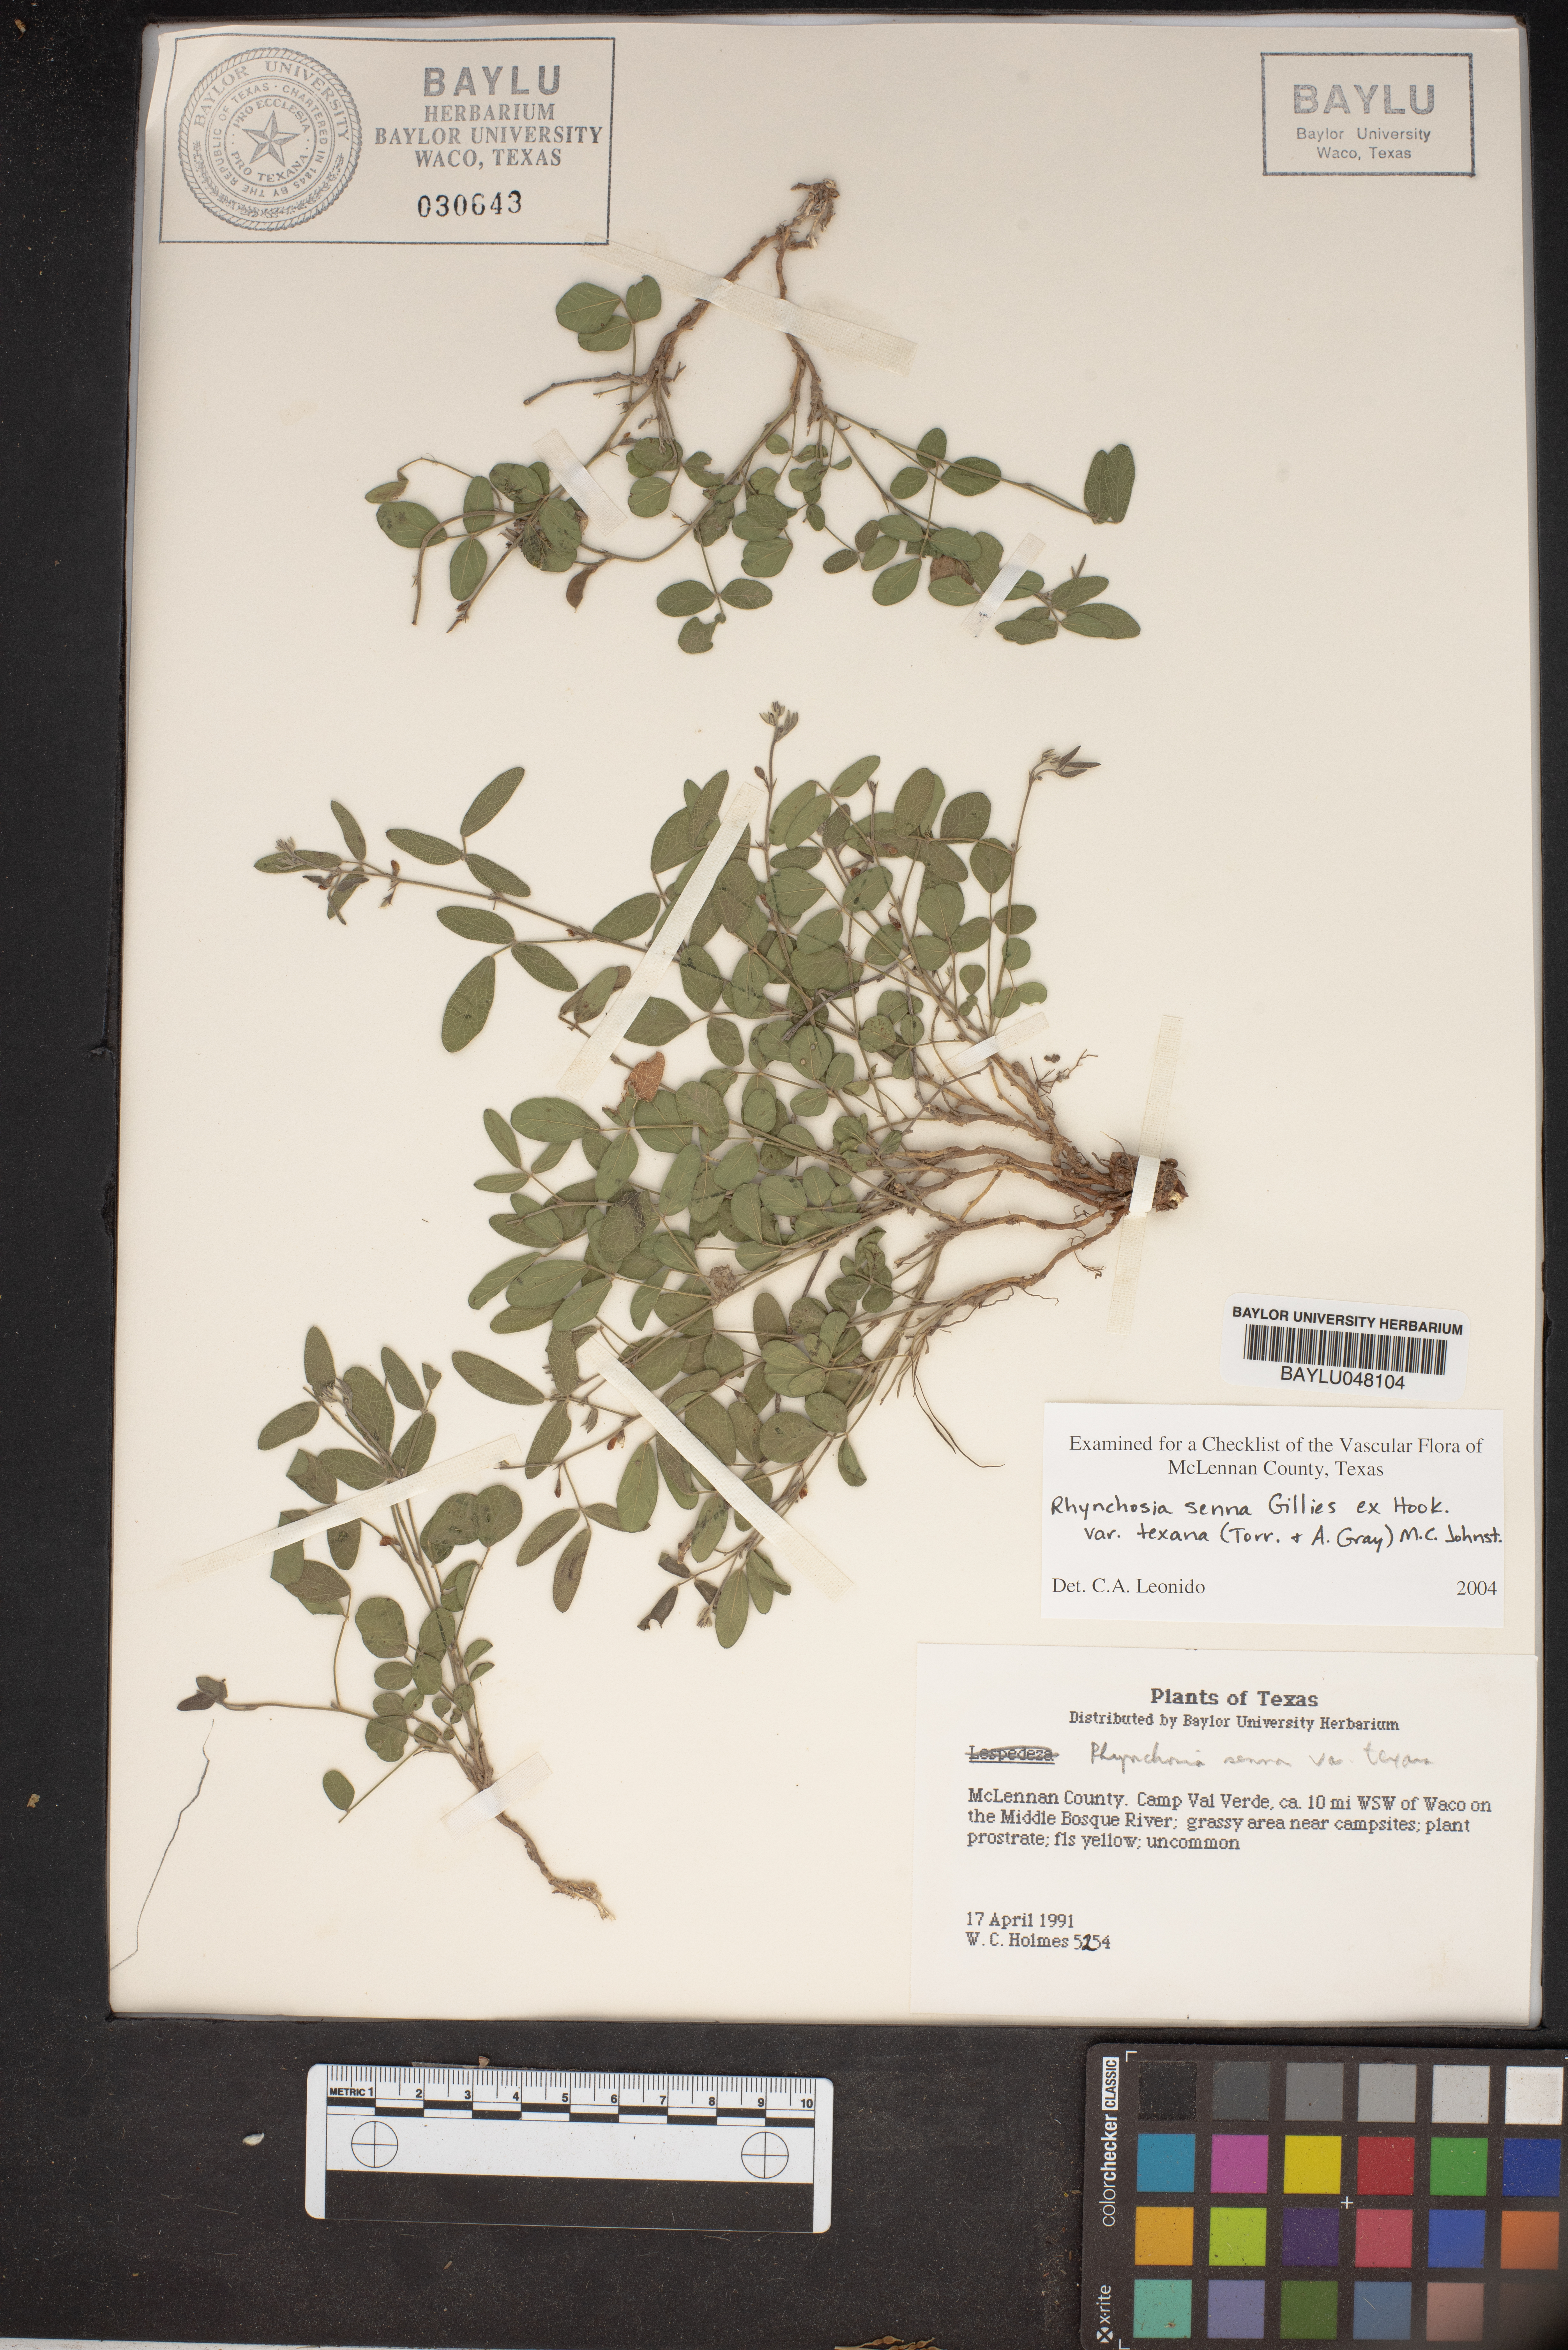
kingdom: Plantae
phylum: Tracheophyta
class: Magnoliopsida
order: Fabales
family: Fabaceae
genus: Rhynchosia
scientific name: Rhynchosia senna
